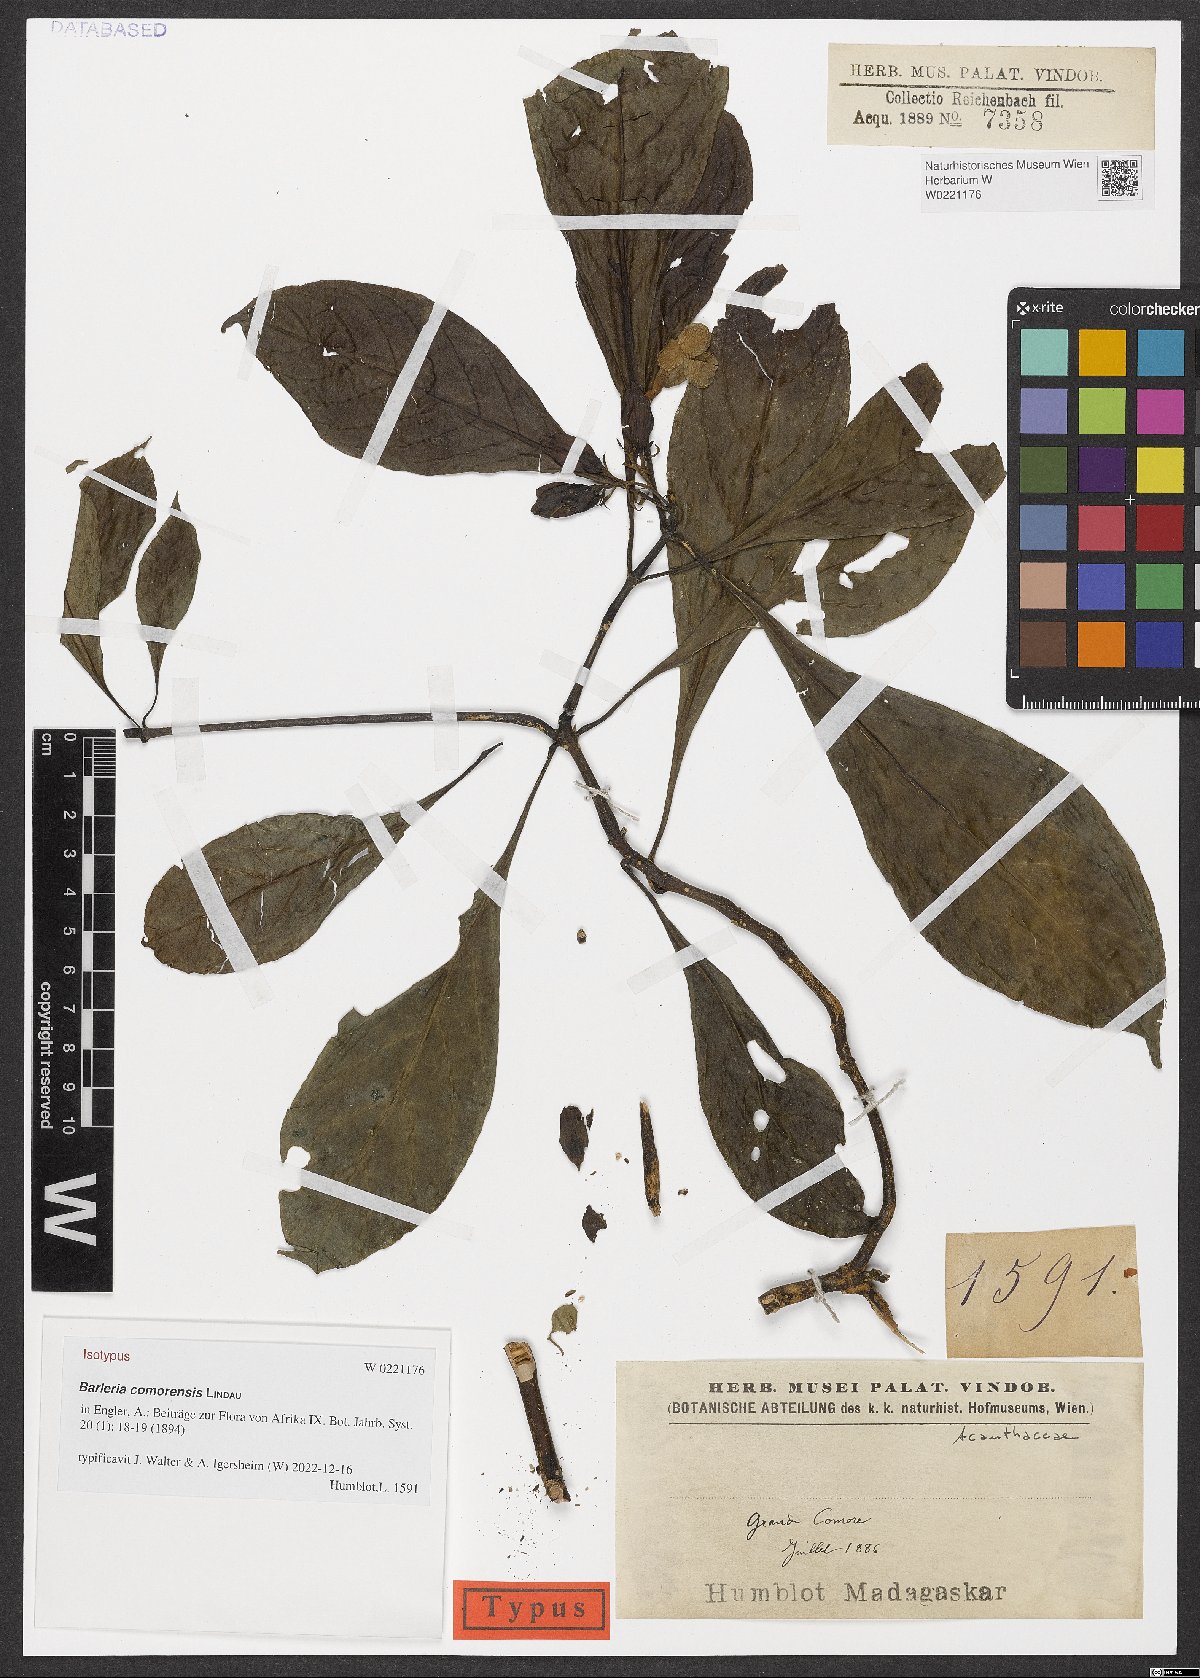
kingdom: Plantae
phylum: Tracheophyta
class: Magnoliopsida
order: Lamiales
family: Acanthaceae
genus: Barleria
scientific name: Barleria comorensis
